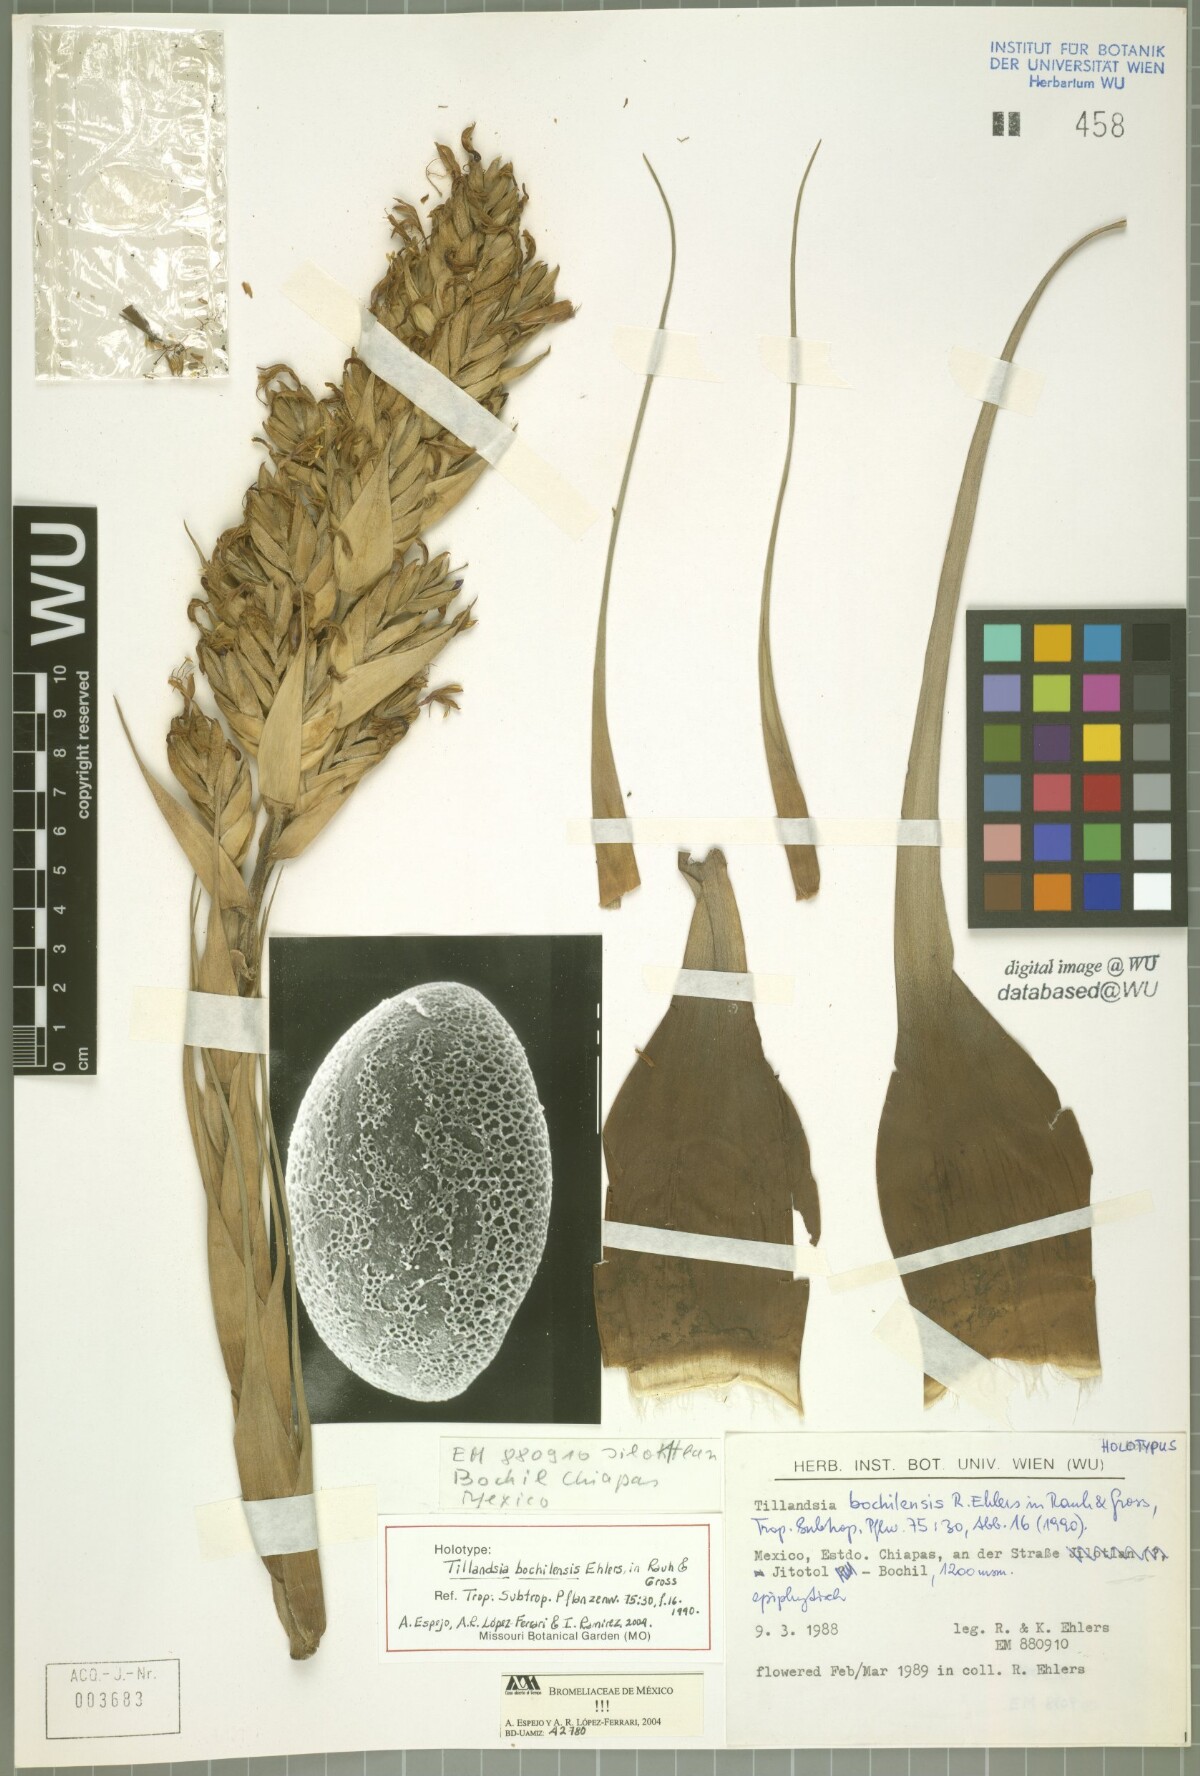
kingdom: Plantae
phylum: Tracheophyta
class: Liliopsida
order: Poales
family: Bromeliaceae
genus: Tillandsia
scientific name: Tillandsia bochilensis
